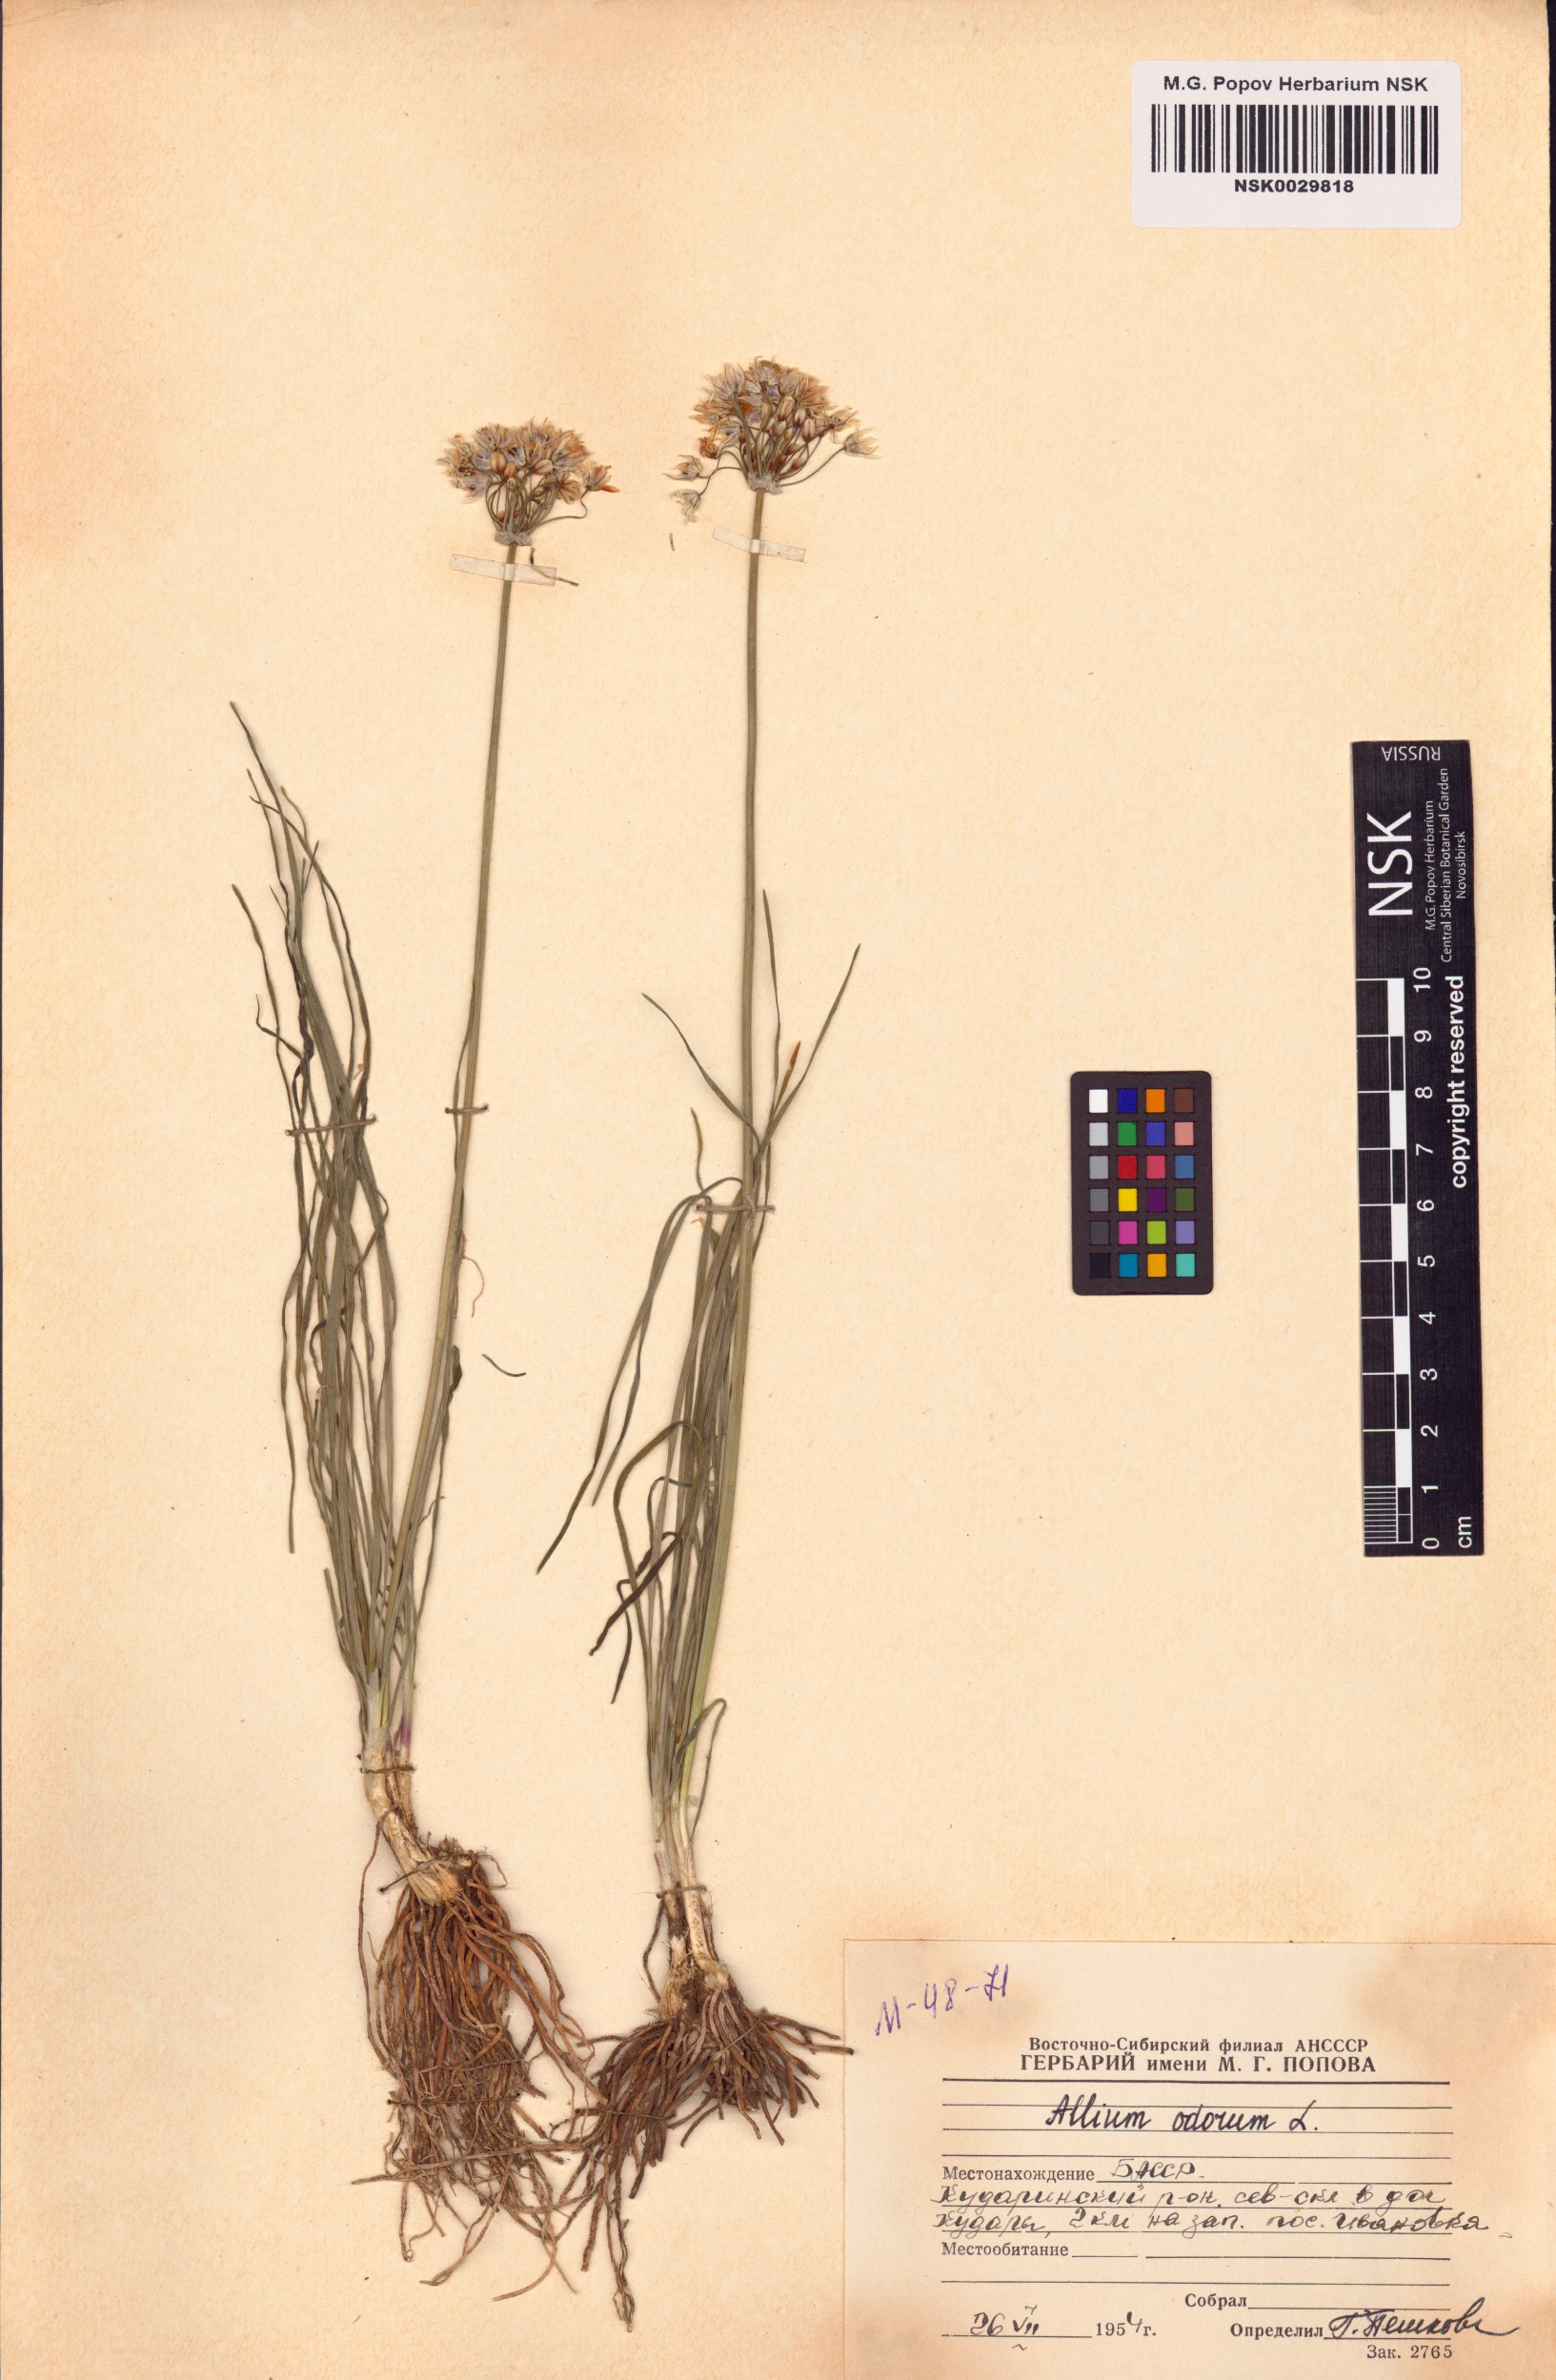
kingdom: Plantae
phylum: Tracheophyta
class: Liliopsida
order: Asparagales
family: Amaryllidaceae
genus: Allium
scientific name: Allium ramosum
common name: Fragrant garlic
